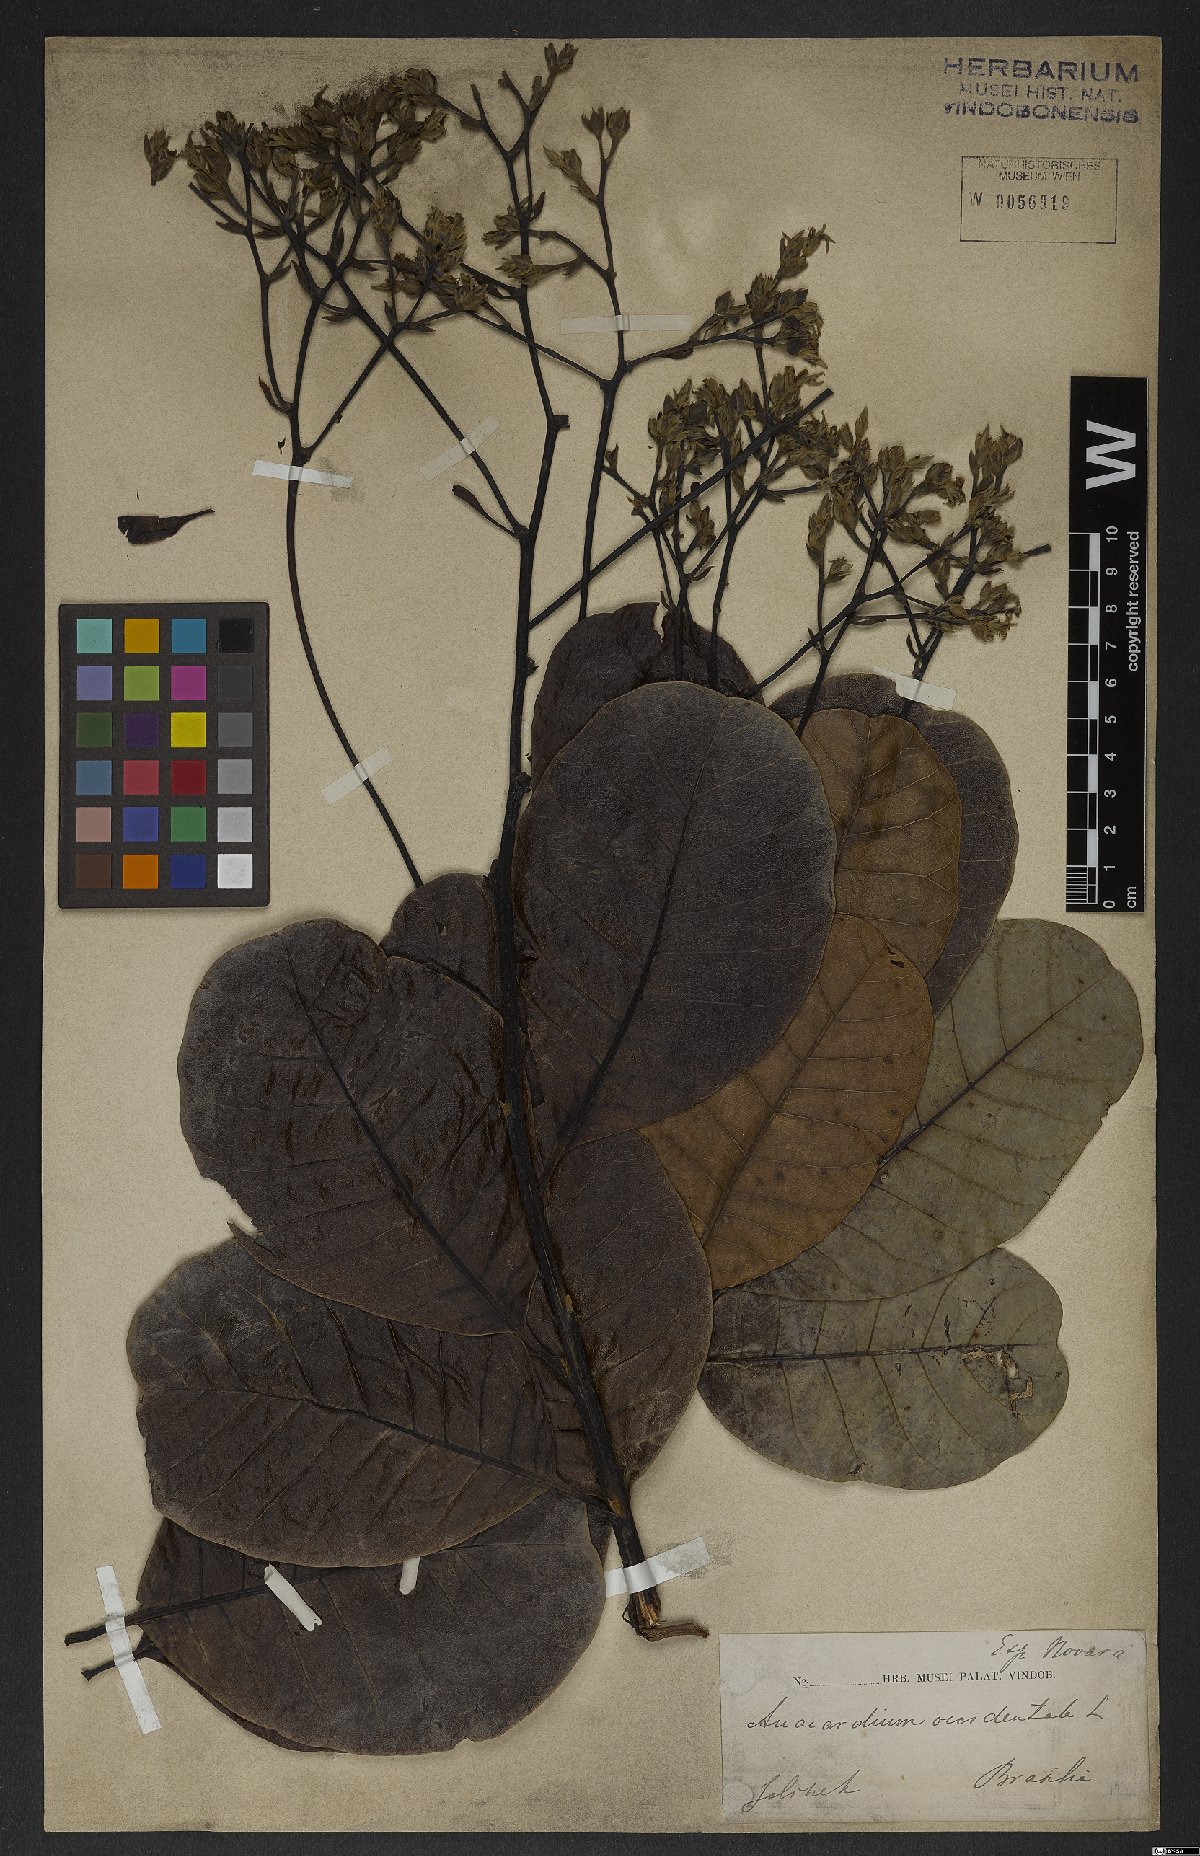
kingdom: Plantae
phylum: Tracheophyta
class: Magnoliopsida
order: Sapindales
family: Anacardiaceae
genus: Anacardium
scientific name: Anacardium occidentale
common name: Cashew
